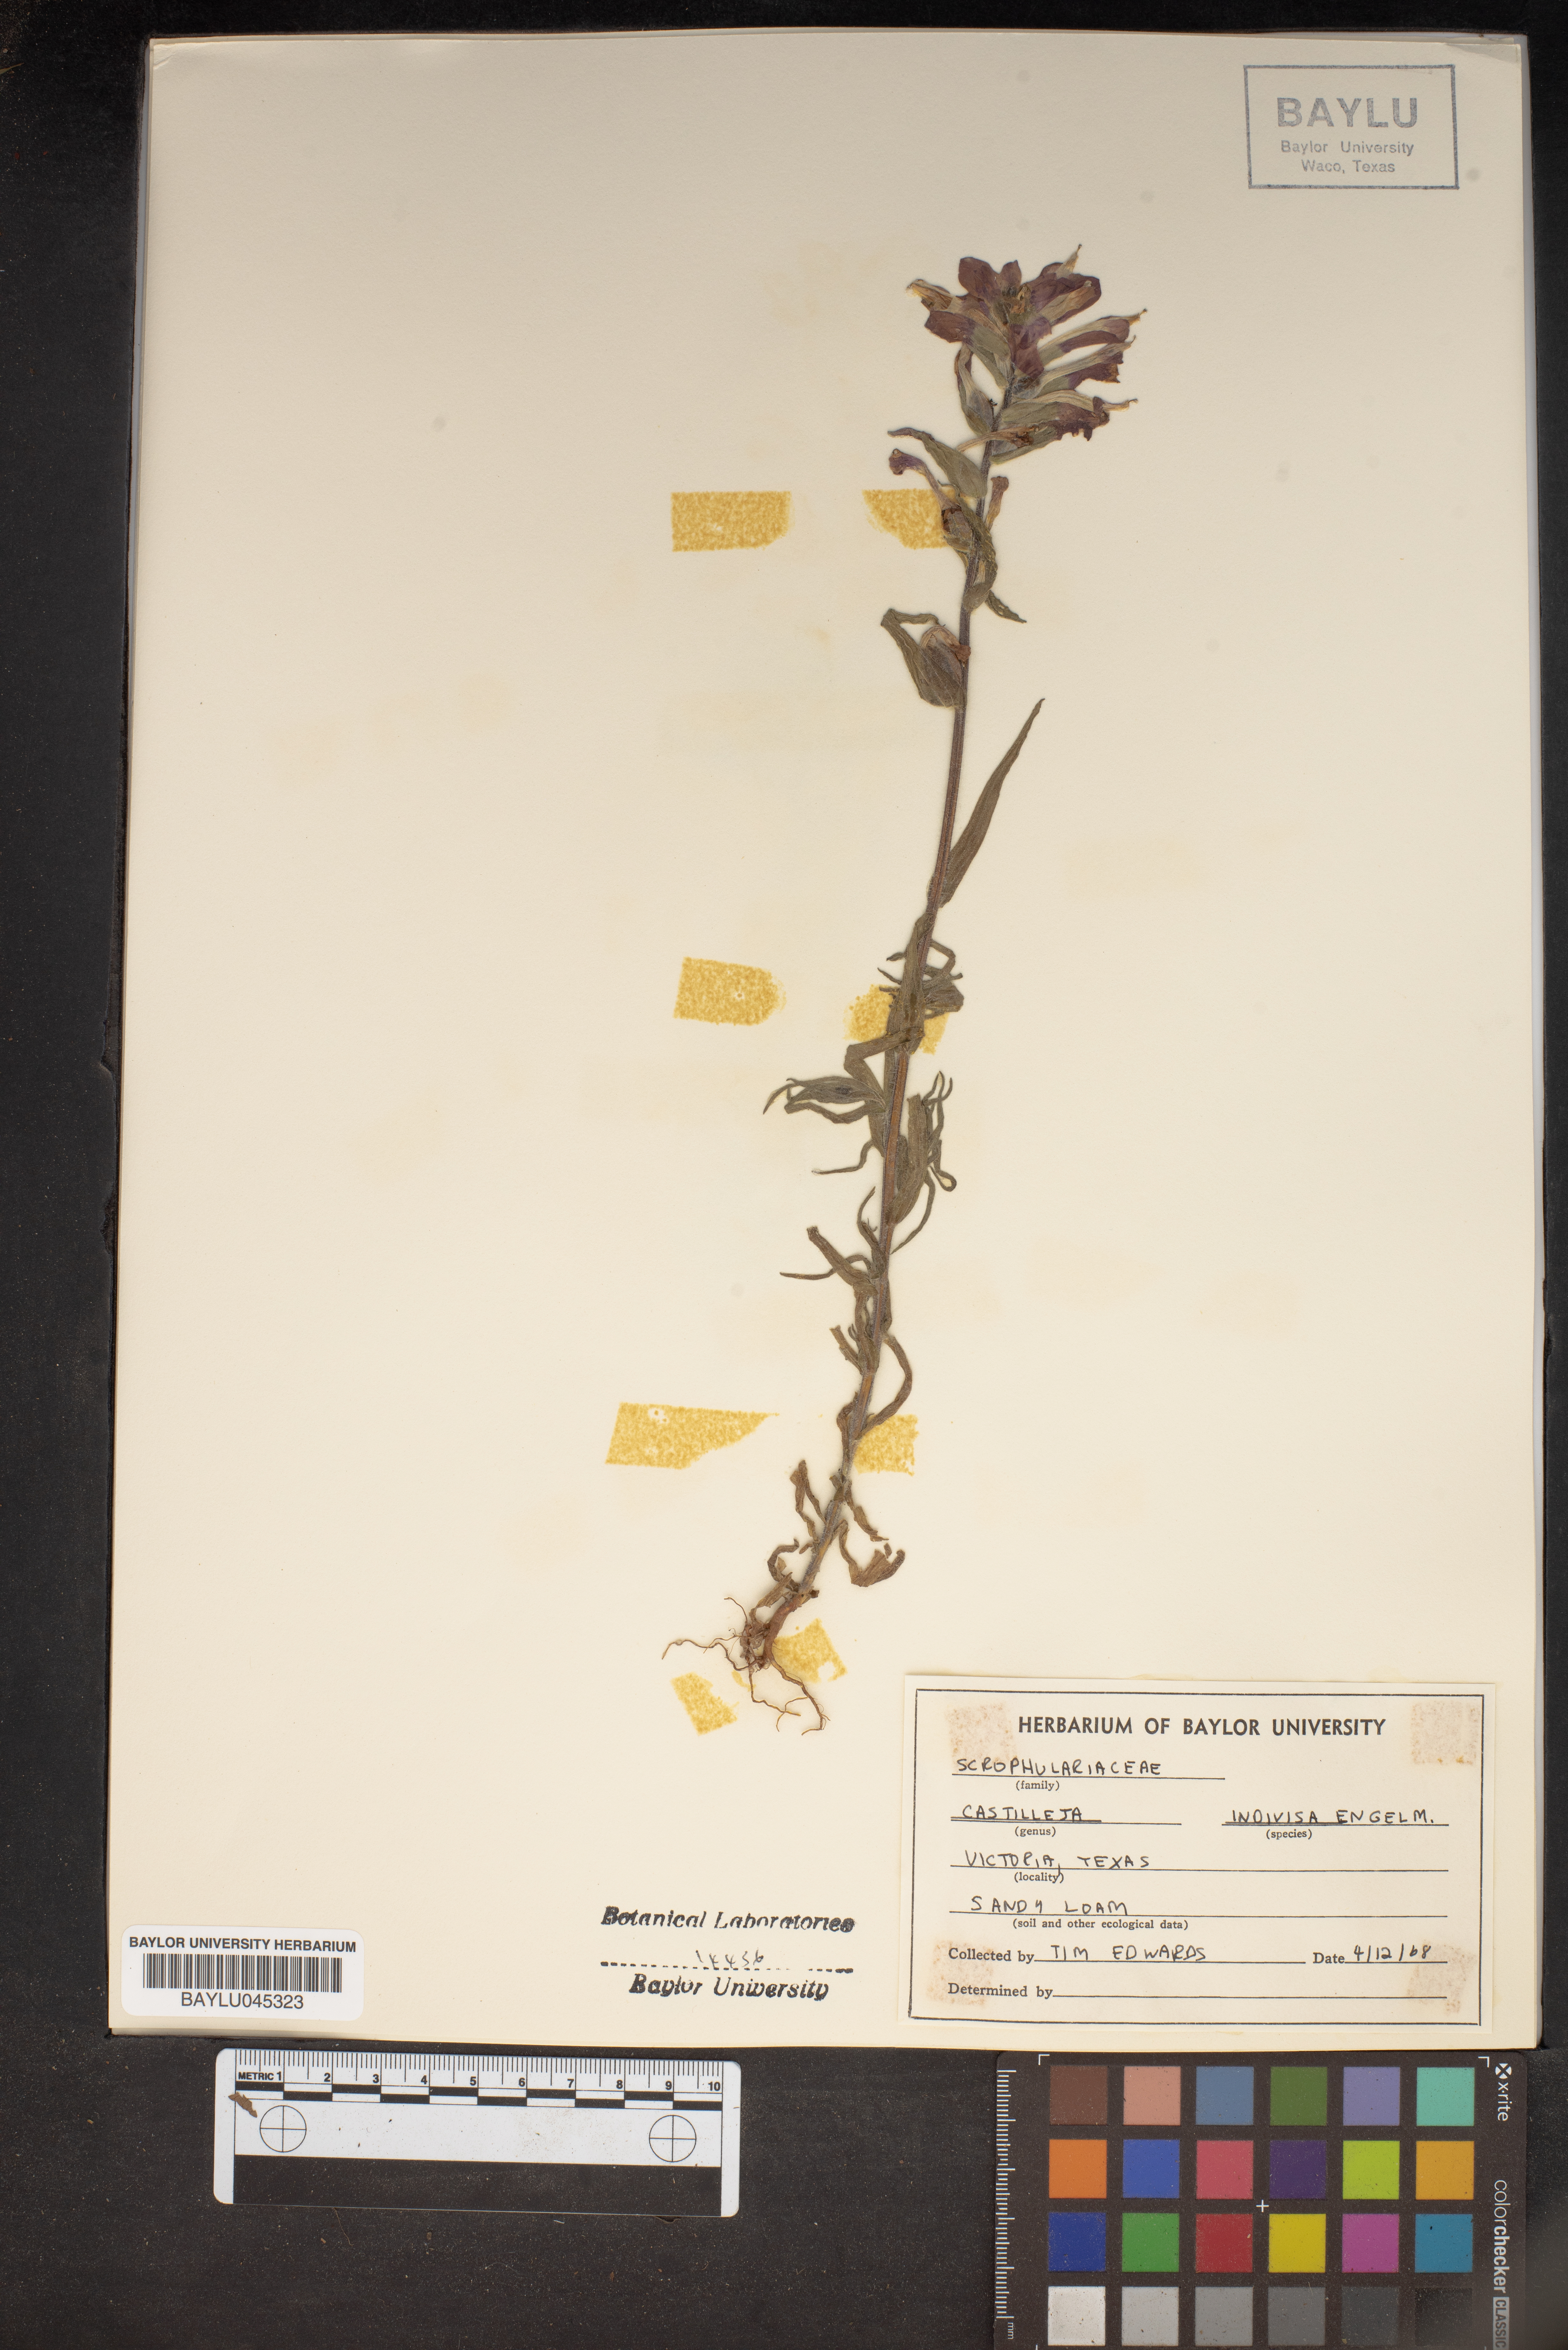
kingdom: Plantae
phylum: Tracheophyta
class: Magnoliopsida
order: Lamiales
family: Orobanchaceae
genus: Castilleja
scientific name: Castilleja indivisa
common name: Texas paintbrush
